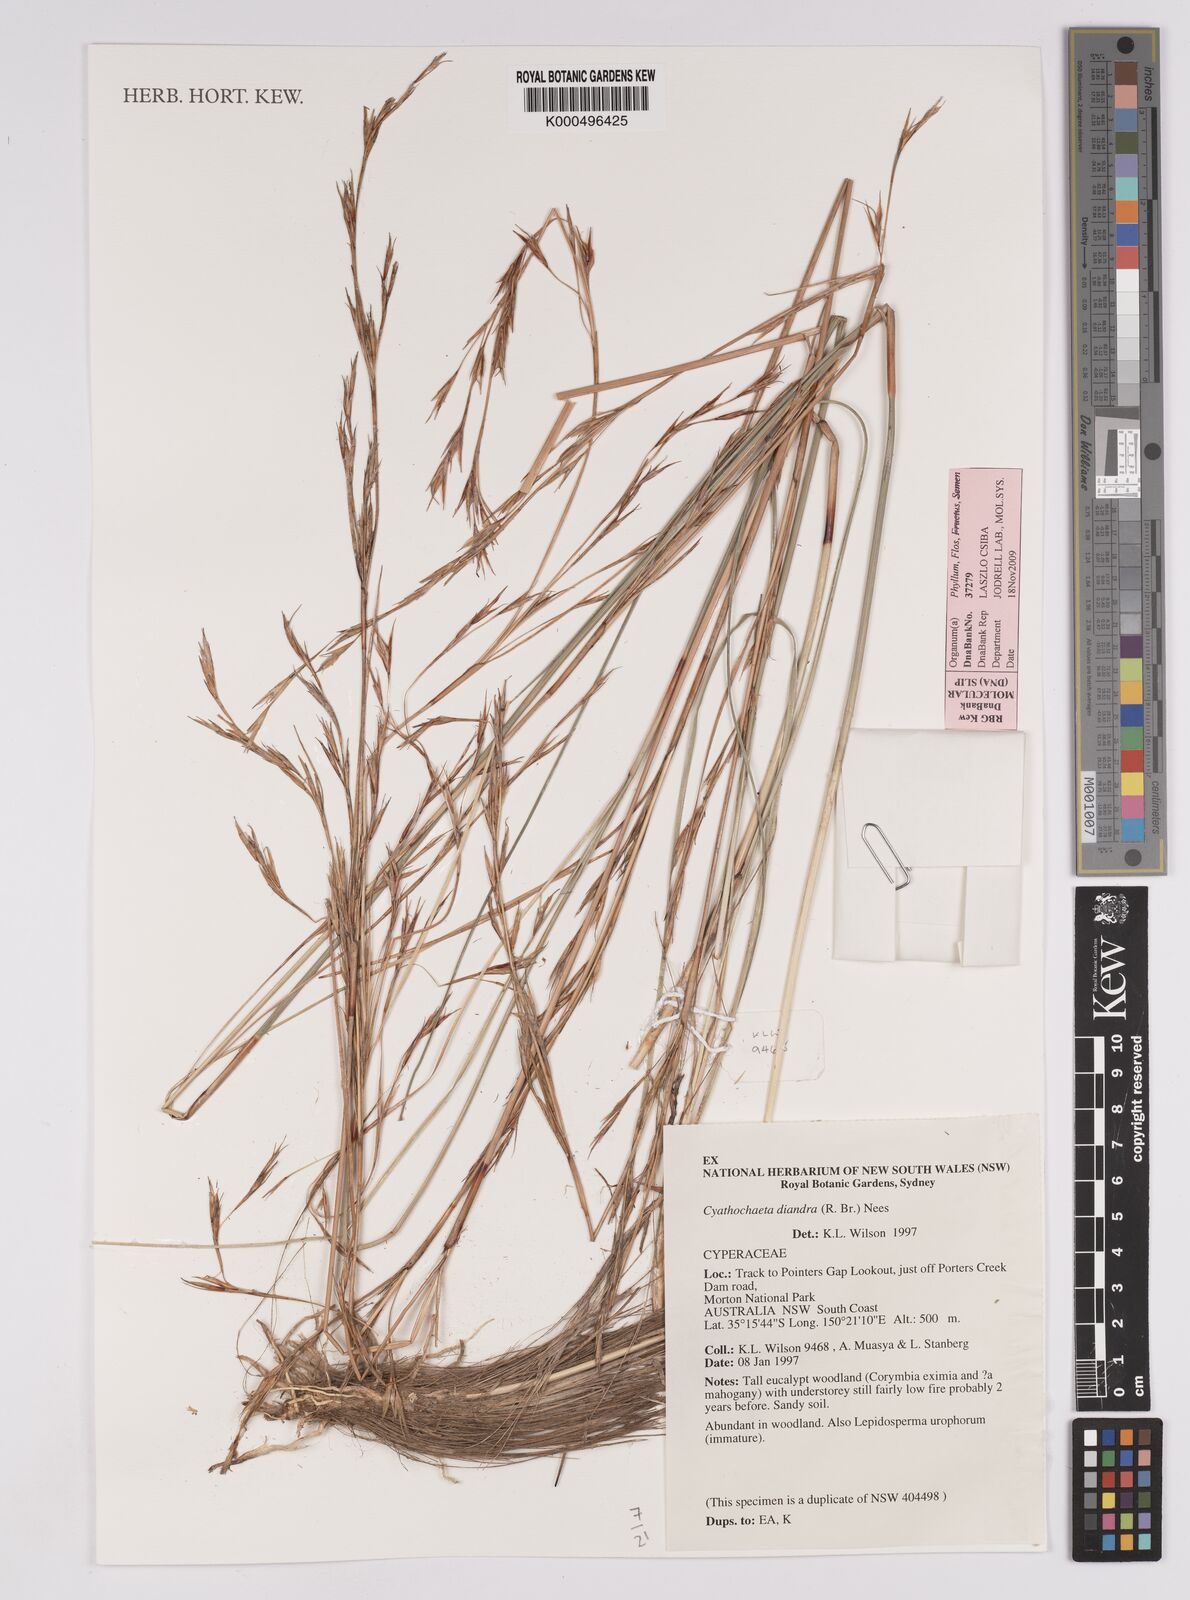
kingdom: Plantae
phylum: Tracheophyta
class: Liliopsida
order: Poales
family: Cyperaceae
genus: Cyathochaeta
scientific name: Cyathochaeta diandra
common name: Sheath rush
